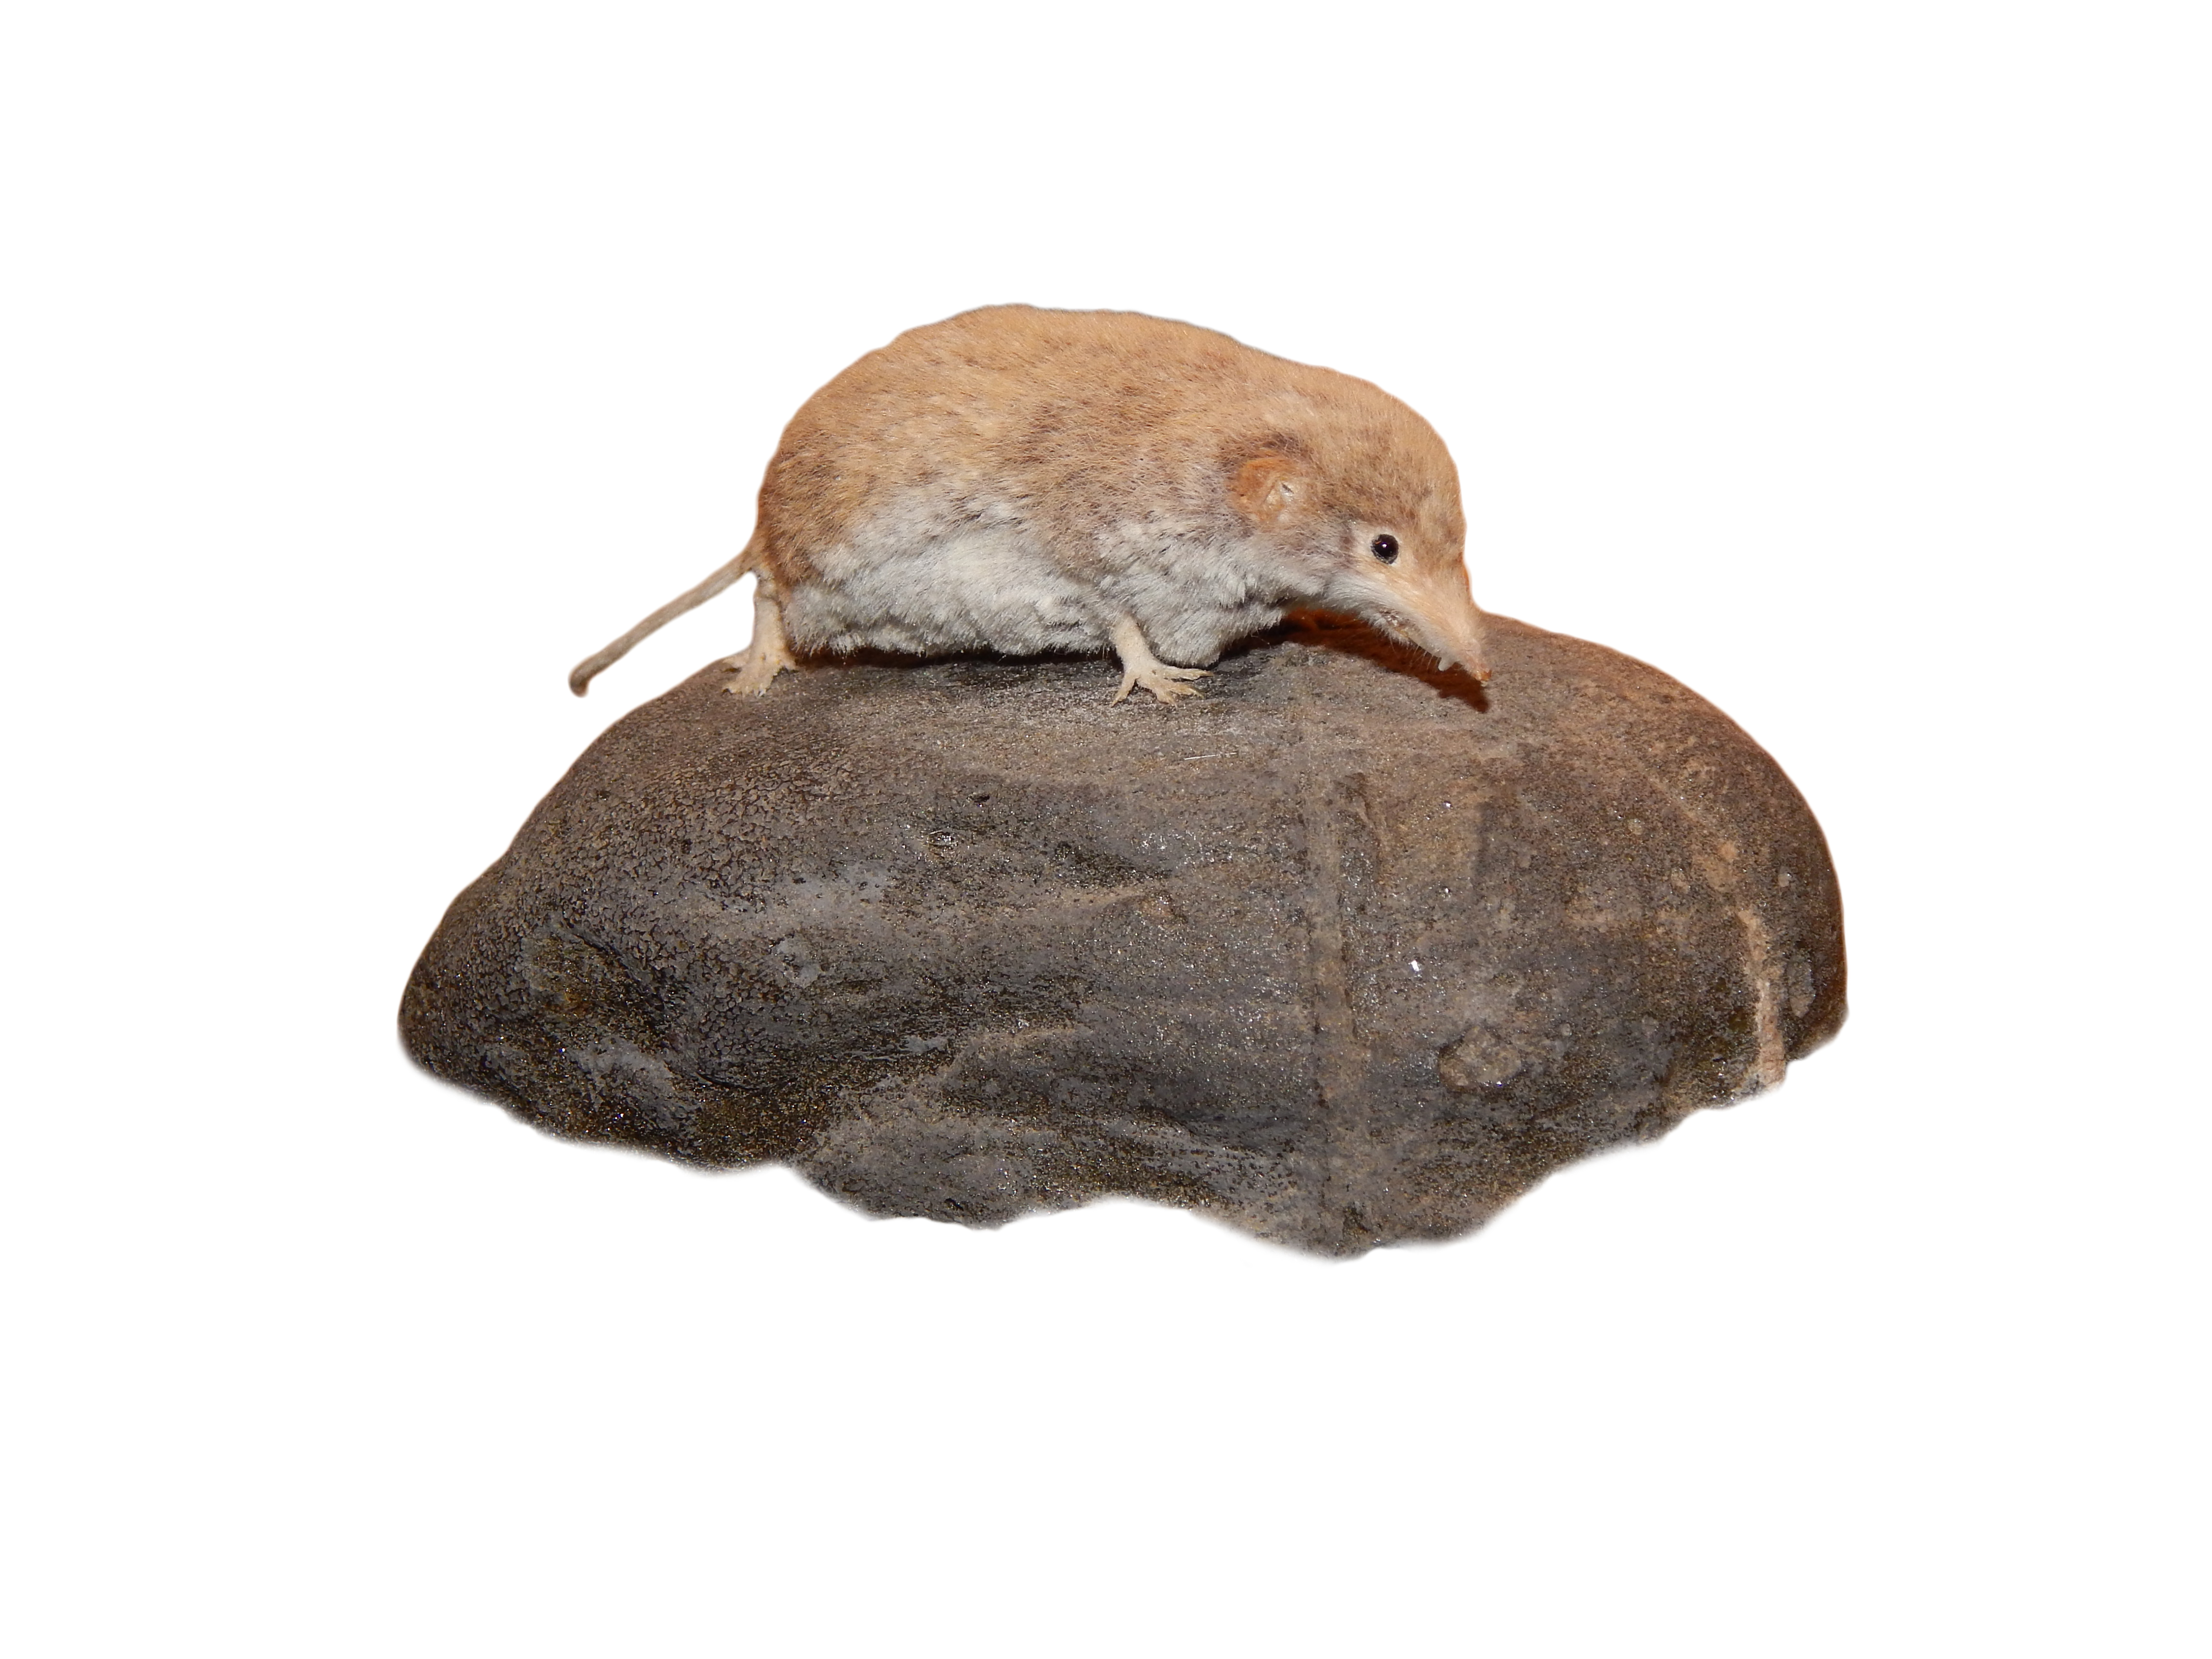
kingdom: Animalia
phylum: Chordata
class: Mammalia
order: Soricomorpha
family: Soricidae
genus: Sorex
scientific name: Sorex araneus
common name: Common shrew
